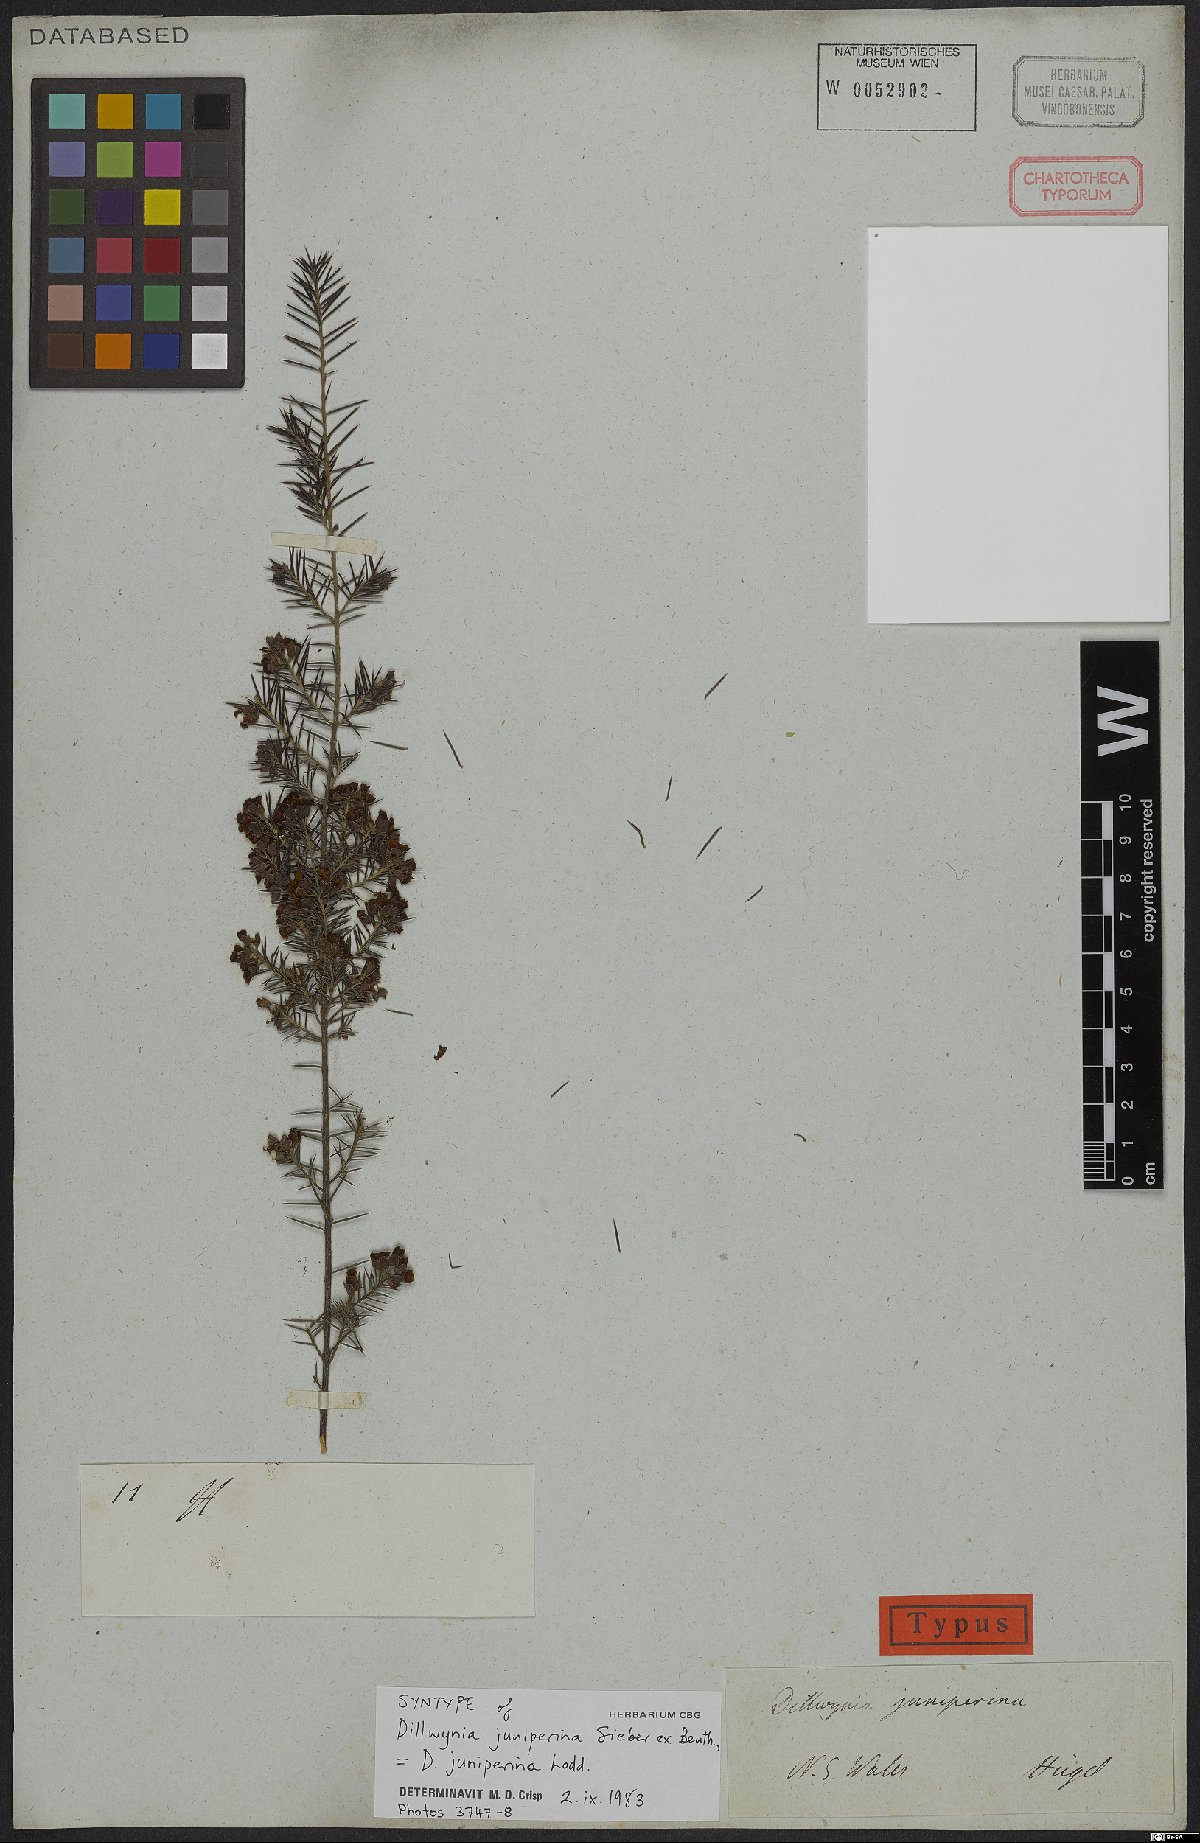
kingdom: Plantae
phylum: Tracheophyta
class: Magnoliopsida
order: Fabales
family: Fabaceae
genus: Dillwynia
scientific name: Dillwynia juniperina
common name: Prickly parrot pea
